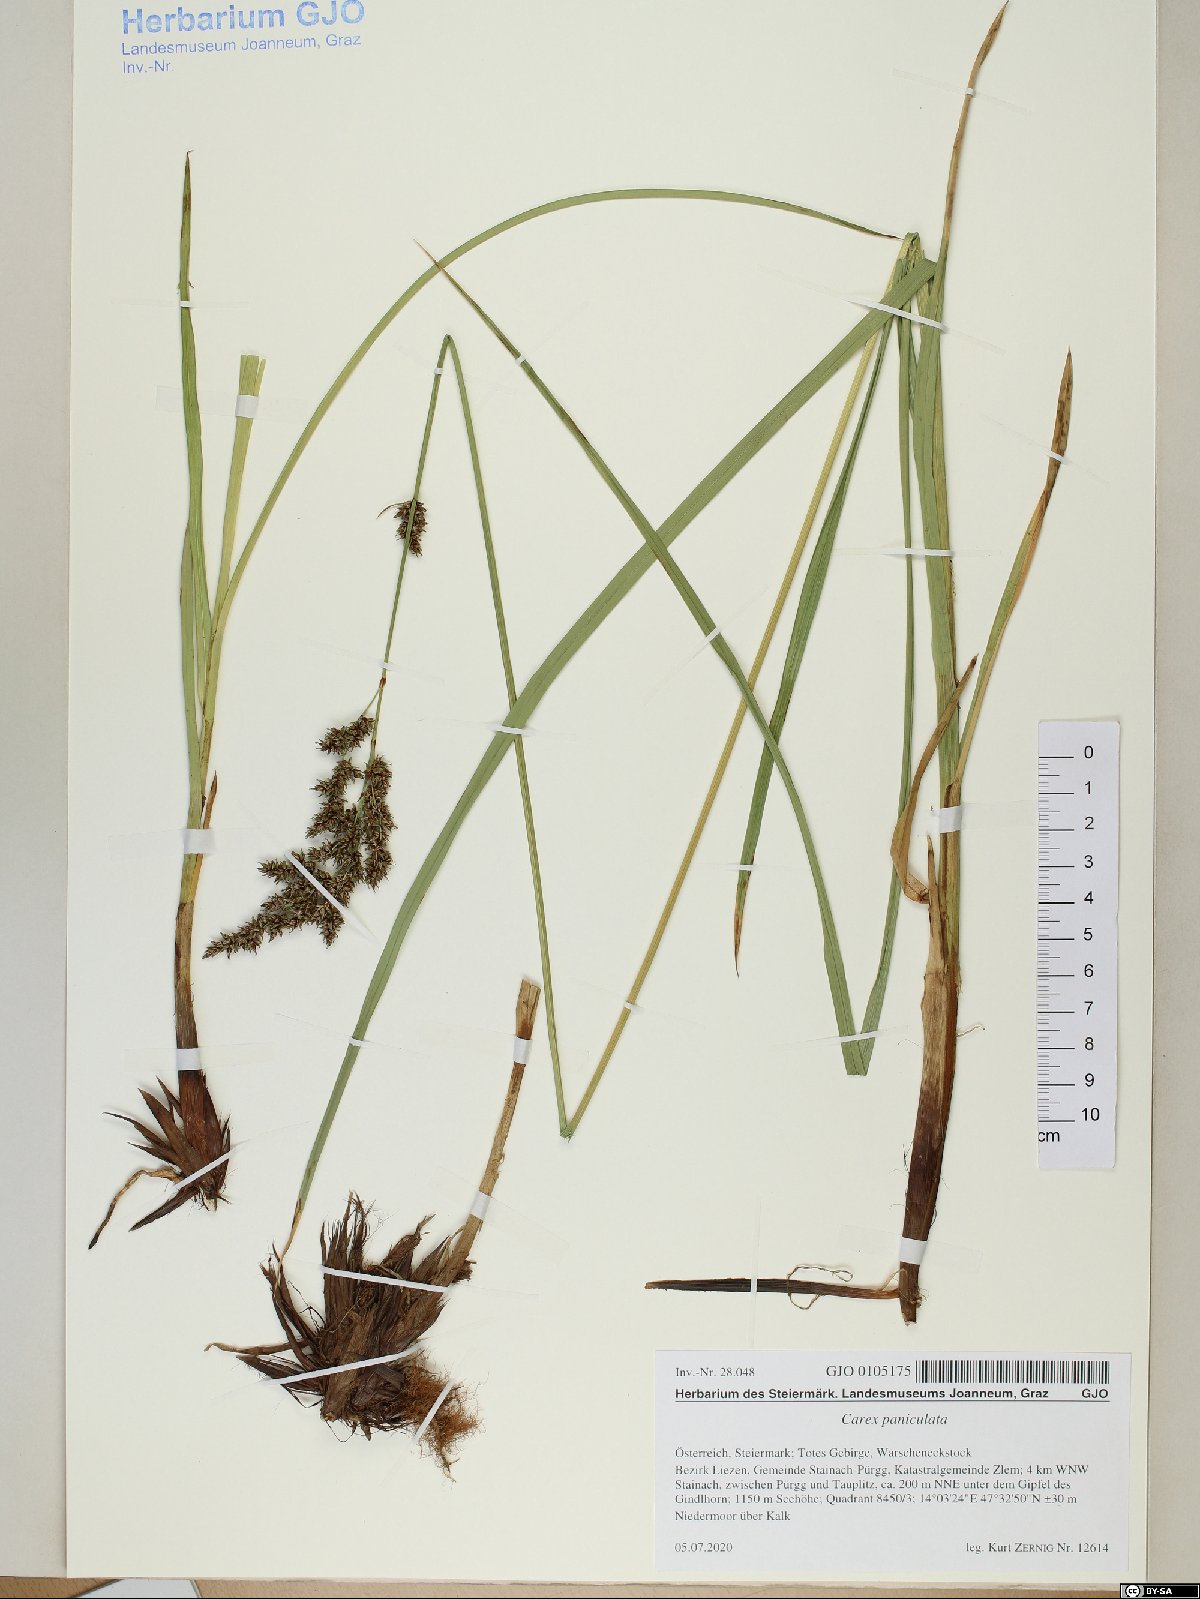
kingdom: Plantae
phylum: Tracheophyta
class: Liliopsida
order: Poales
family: Cyperaceae
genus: Carex
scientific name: Carex paniculata
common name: Greater tussock-sedge
